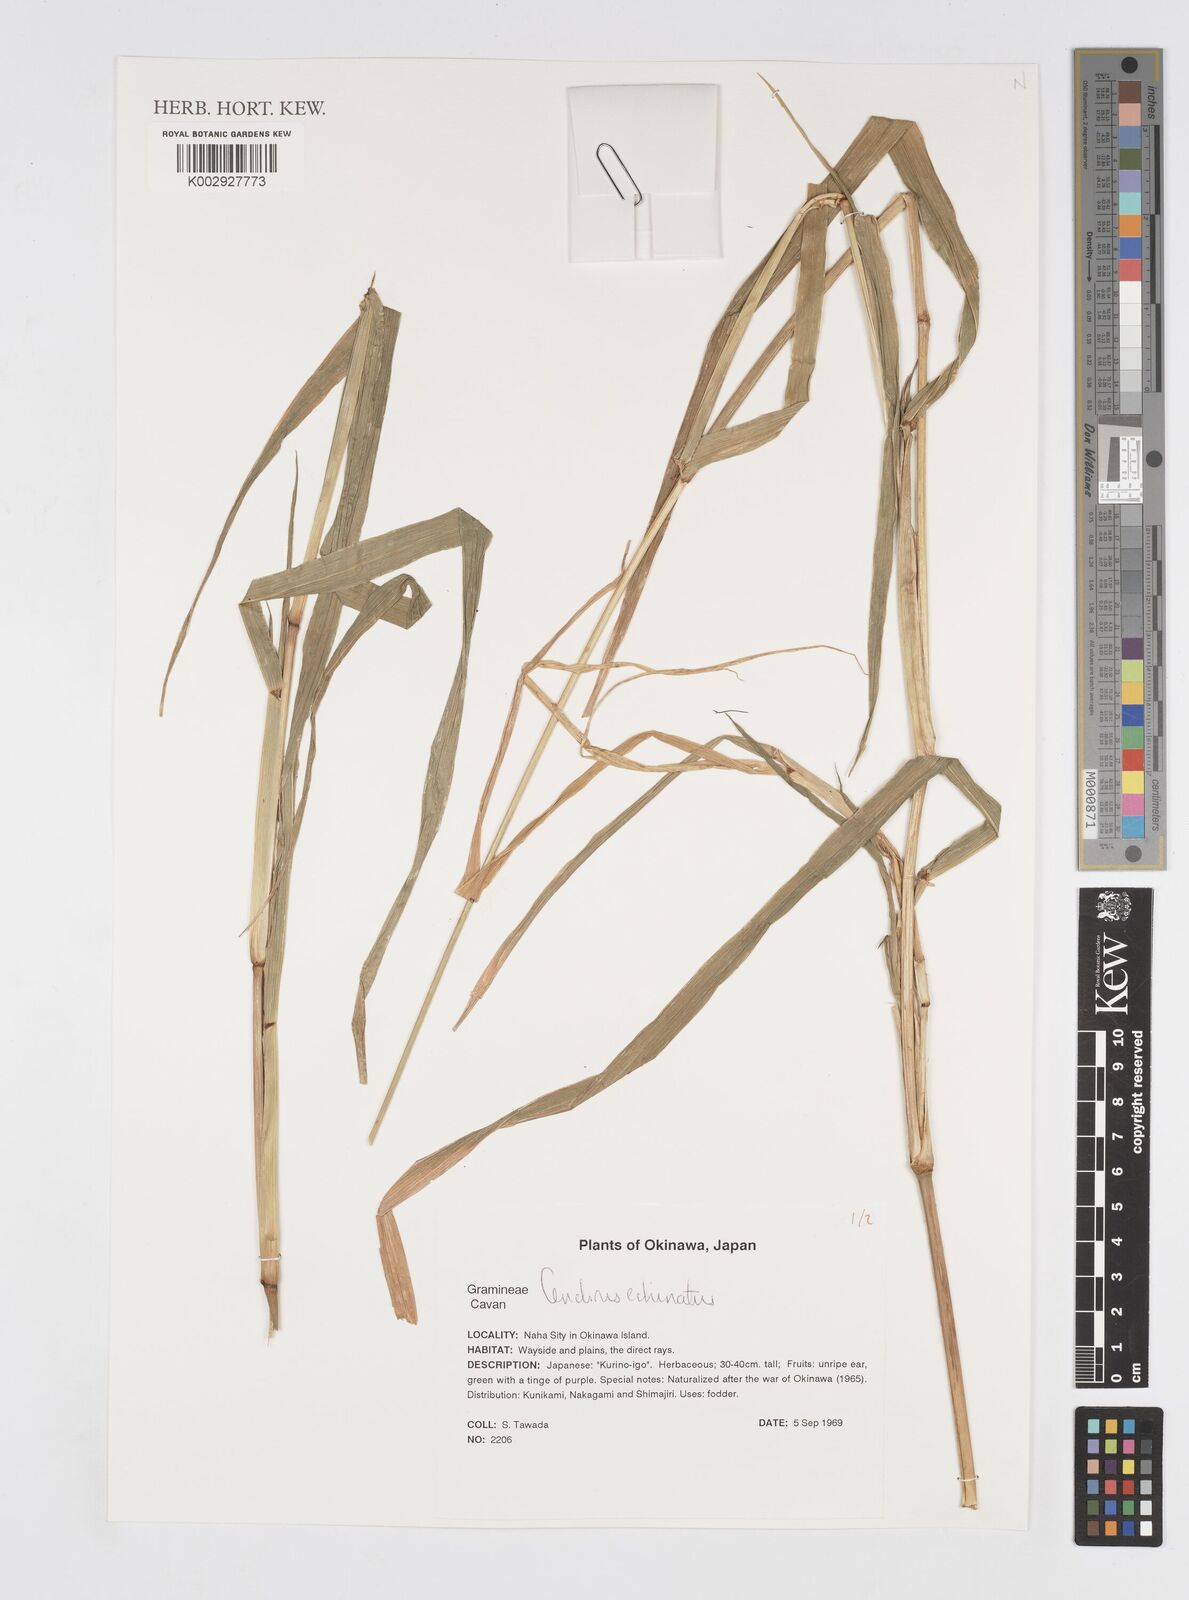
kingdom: Plantae
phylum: Tracheophyta
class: Liliopsida
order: Poales
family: Poaceae
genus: Cenchrus
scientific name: Cenchrus echinatus
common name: Southern sandbur
